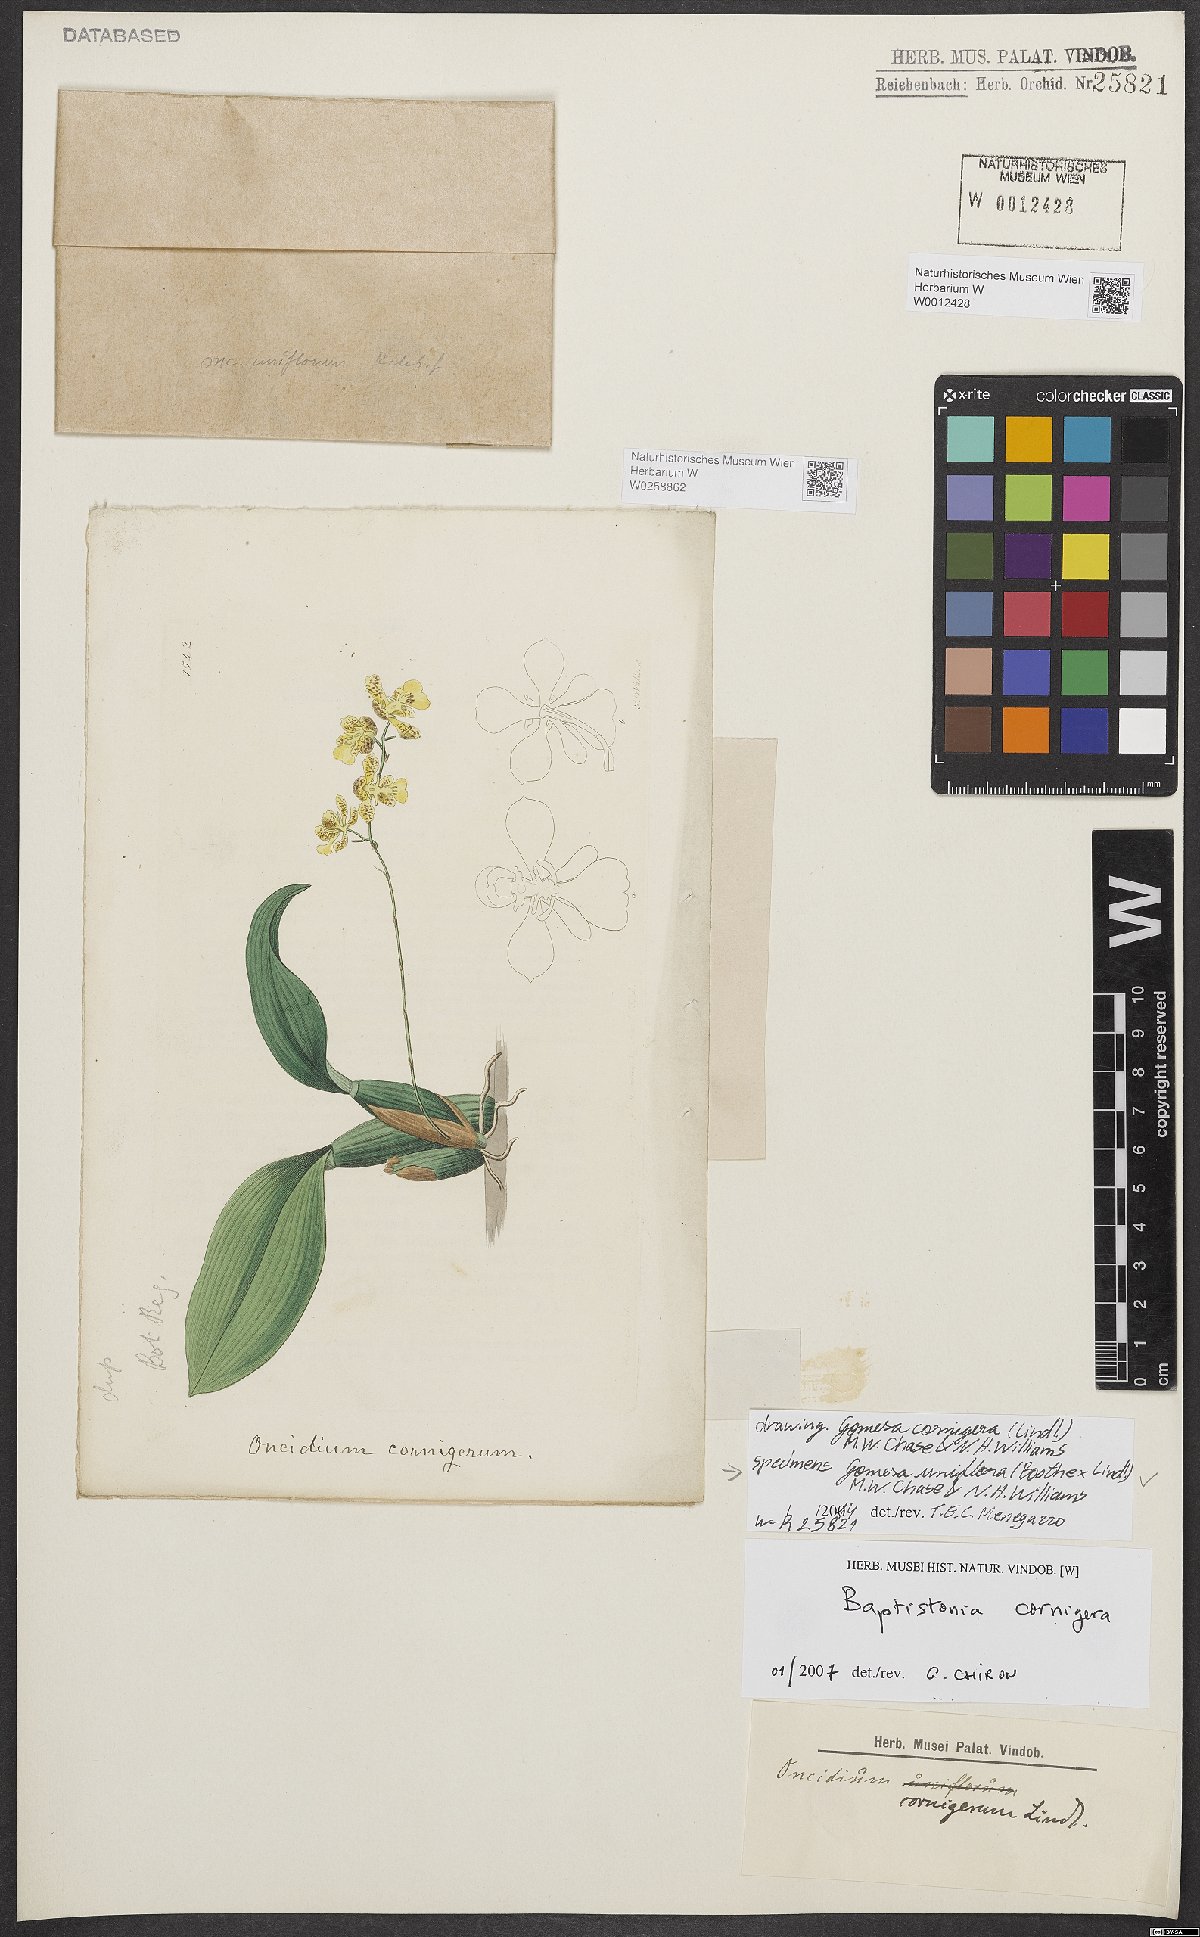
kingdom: Plantae
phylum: Tracheophyta
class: Liliopsida
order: Asparagales
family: Orchidaceae
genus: Gomesa
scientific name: Gomesa cornigera
